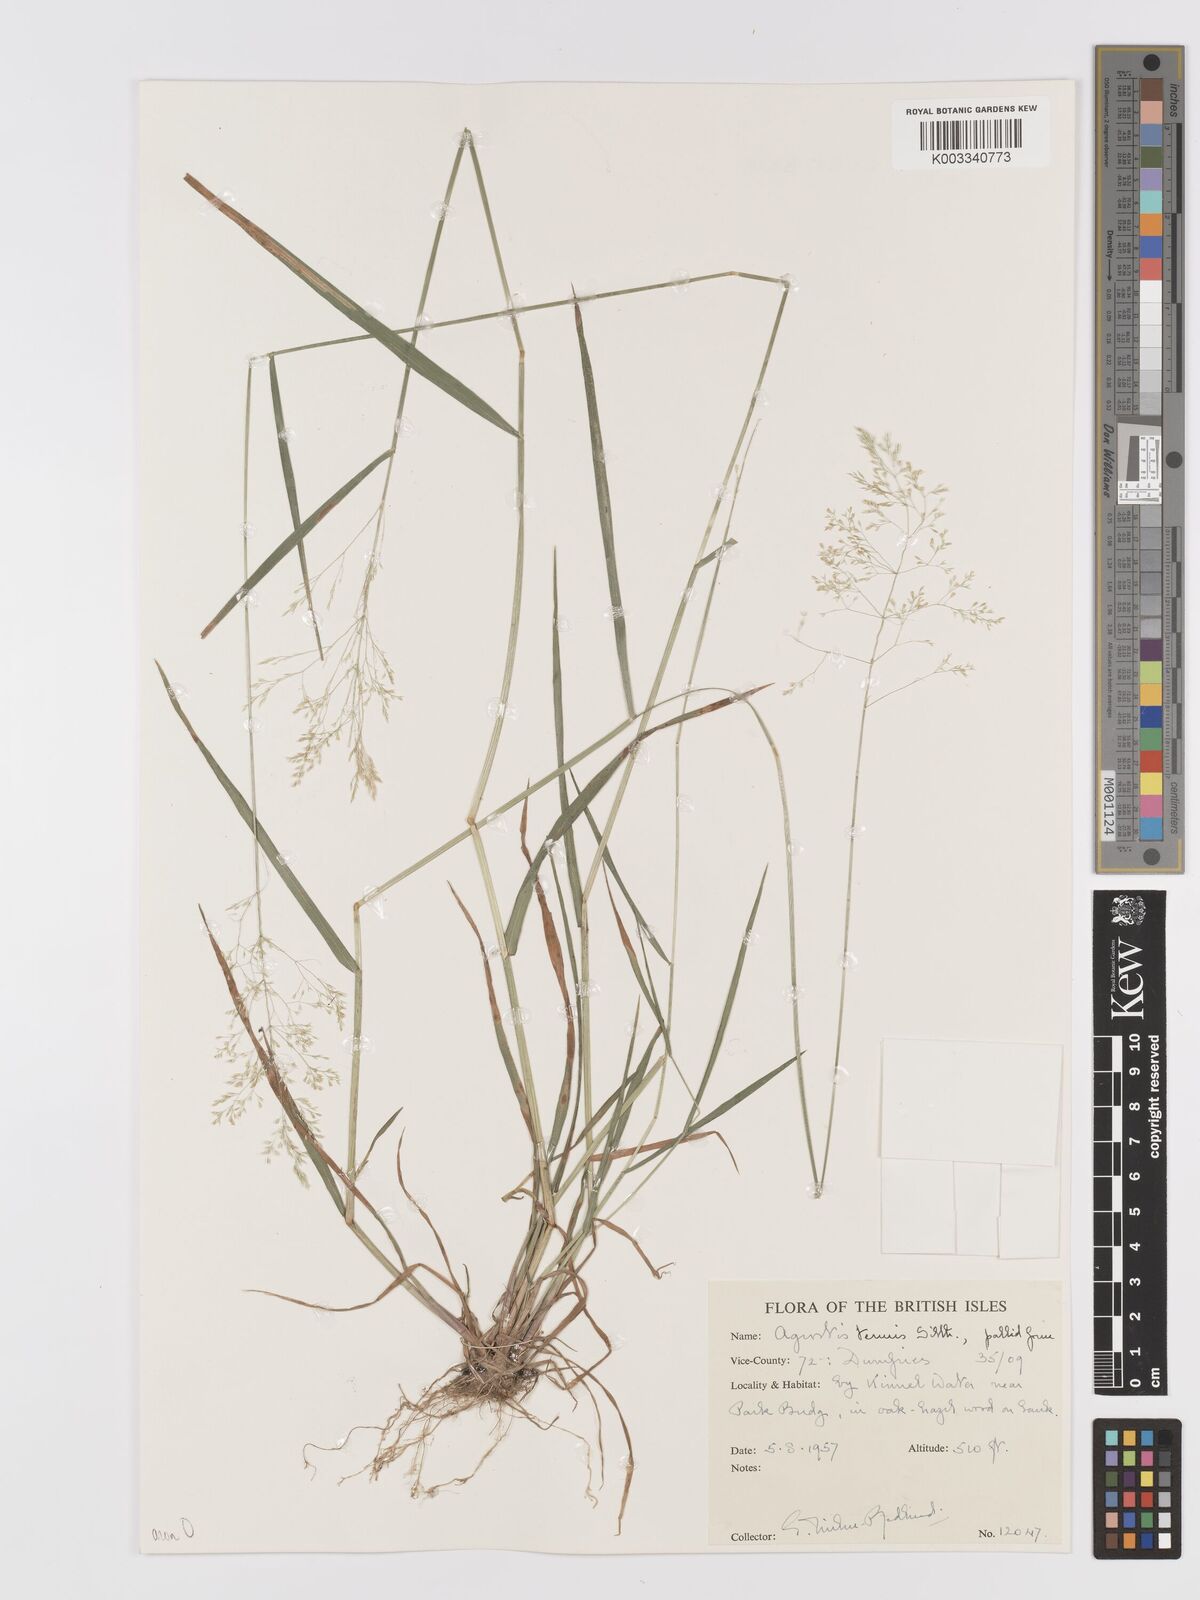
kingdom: Plantae
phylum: Tracheophyta
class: Liliopsida
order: Poales
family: Poaceae
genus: Agrostis
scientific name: Agrostis capillaris
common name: Colonial bentgrass
